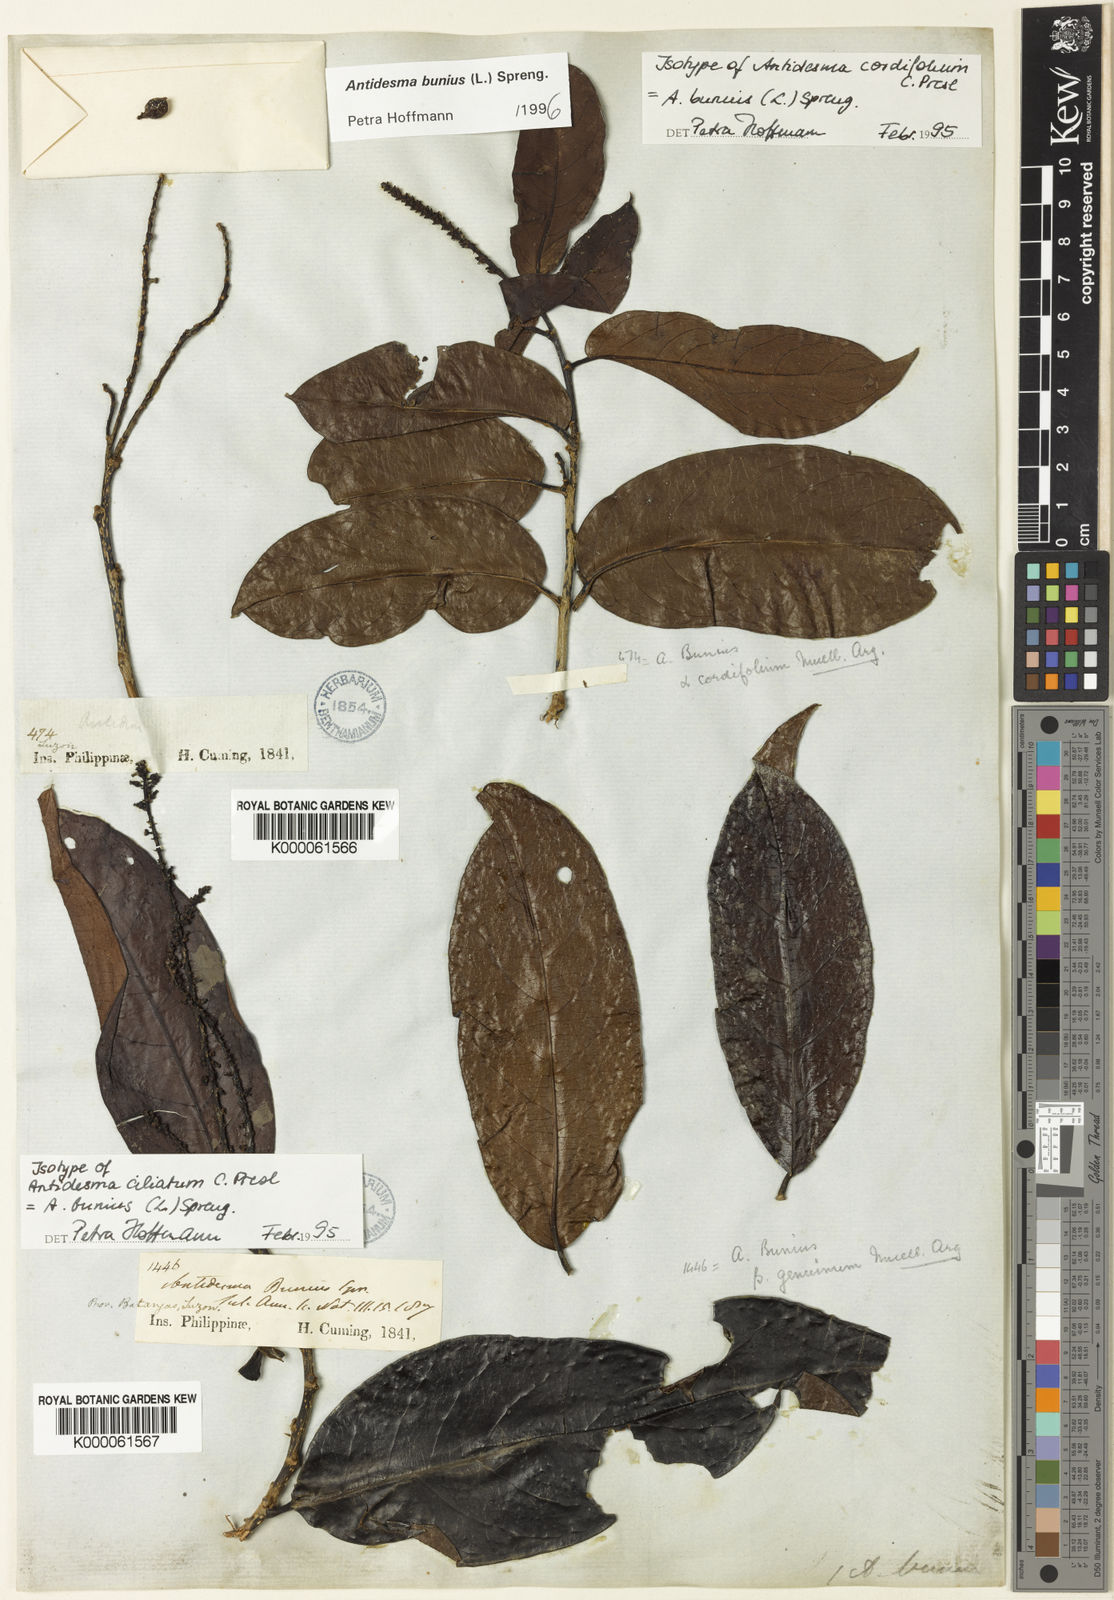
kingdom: Plantae
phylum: Tracheophyta
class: Magnoliopsida
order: Malpighiales
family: Phyllanthaceae
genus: Antidesma
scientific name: Antidesma bunius
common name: Chinese-laurel
